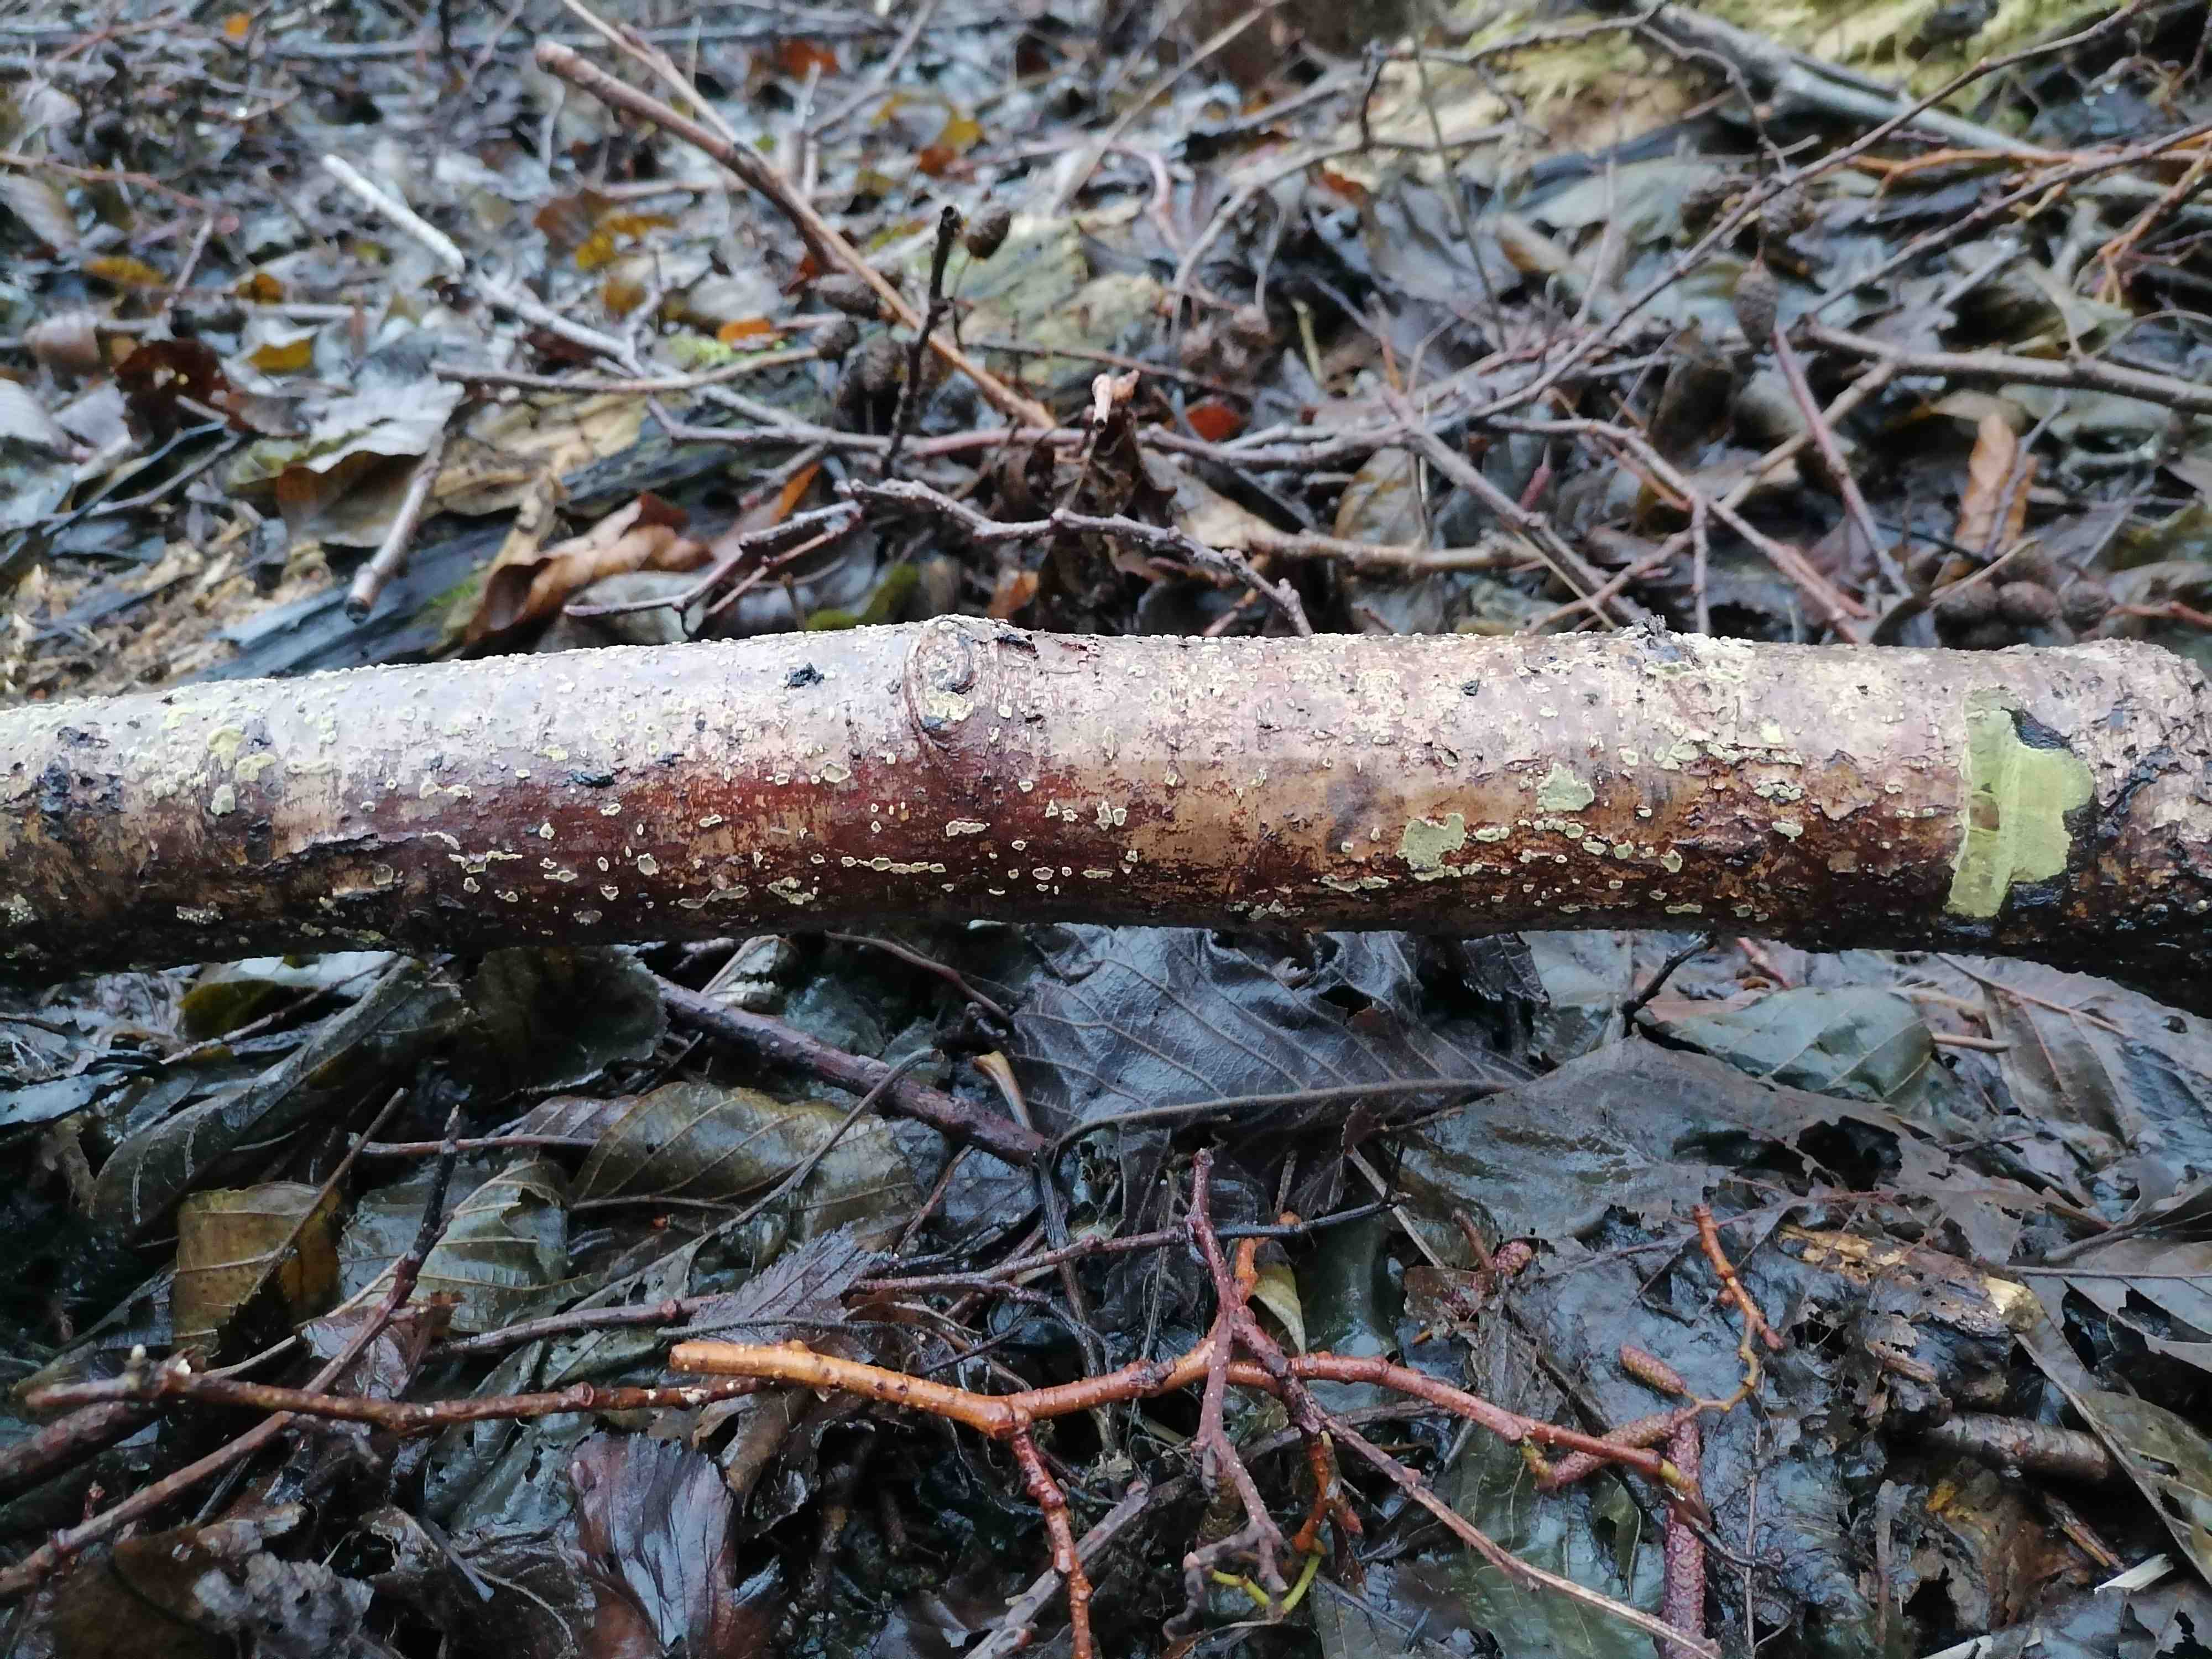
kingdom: Fungi
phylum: Ascomycota
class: Sordariomycetes
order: Hypocreales
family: Hypocreaceae
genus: Trichoderma
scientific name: Trichoderma
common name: kødkerne
